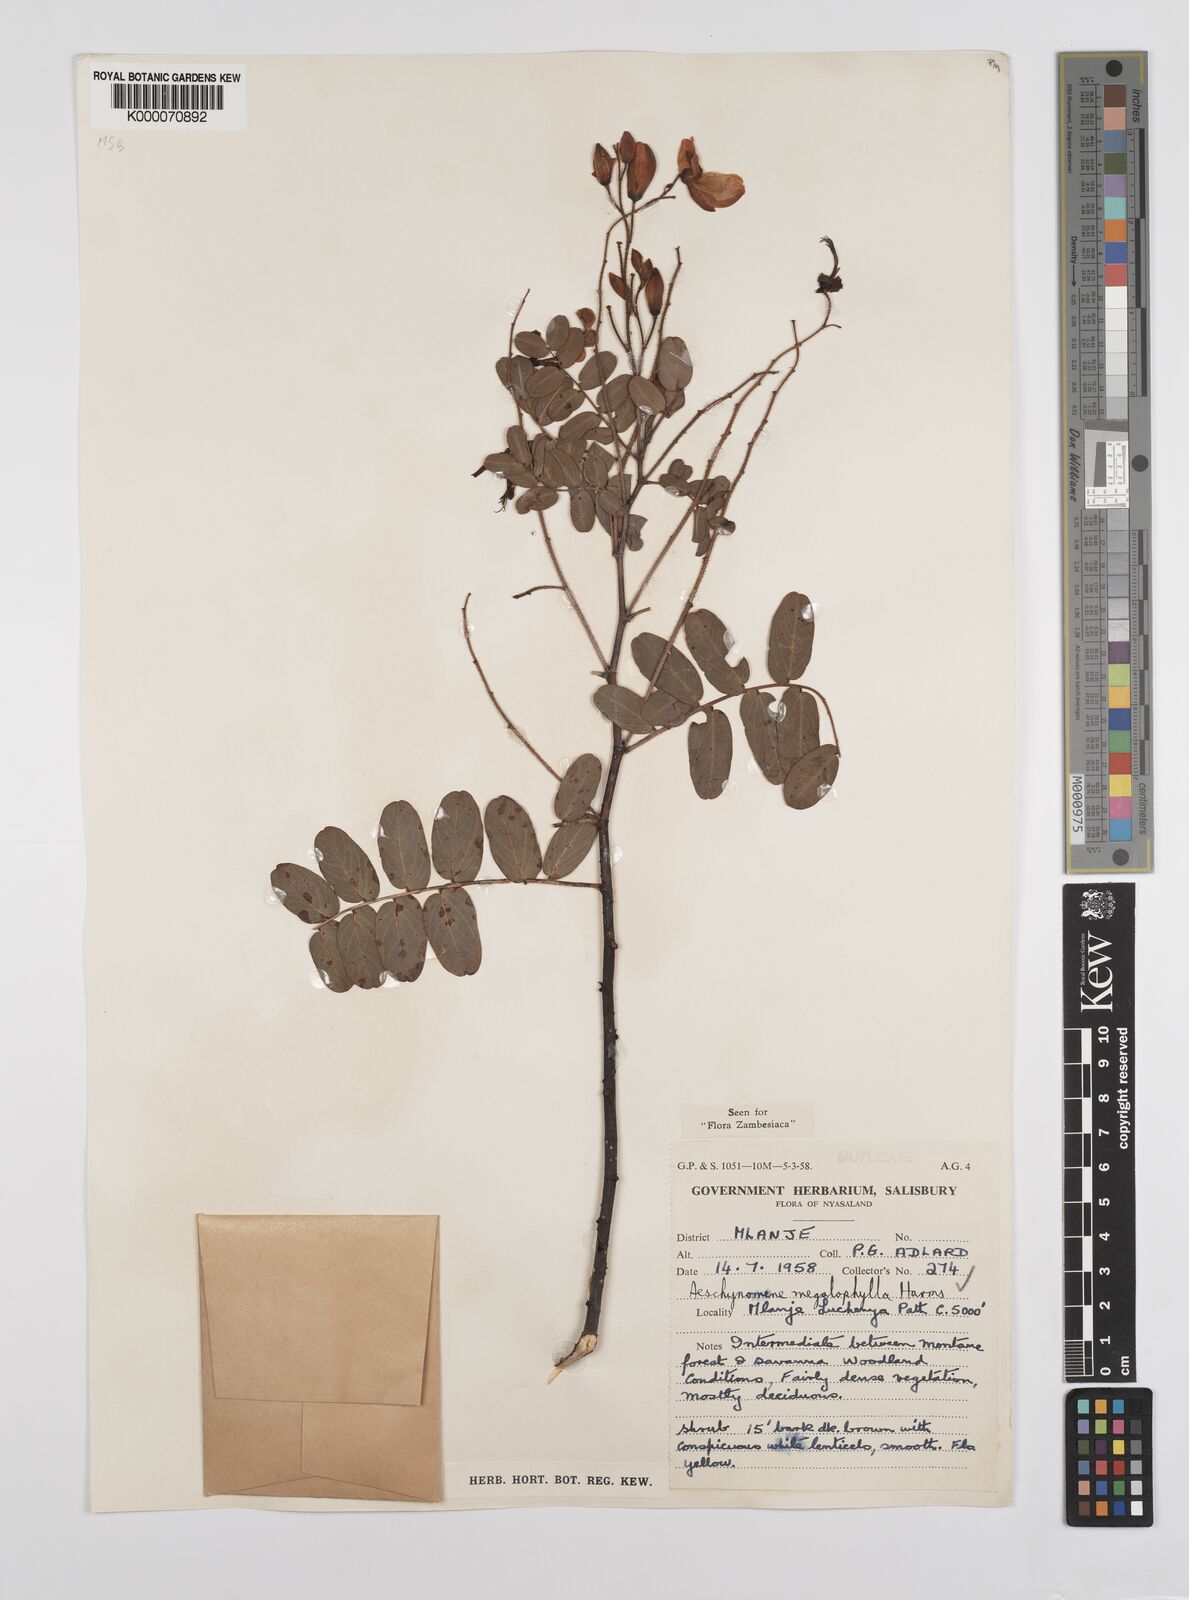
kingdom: Plantae
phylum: Tracheophyta
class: Magnoliopsida
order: Fabales
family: Fabaceae
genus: Aeschynomene
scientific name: Aeschynomene megalophylla
